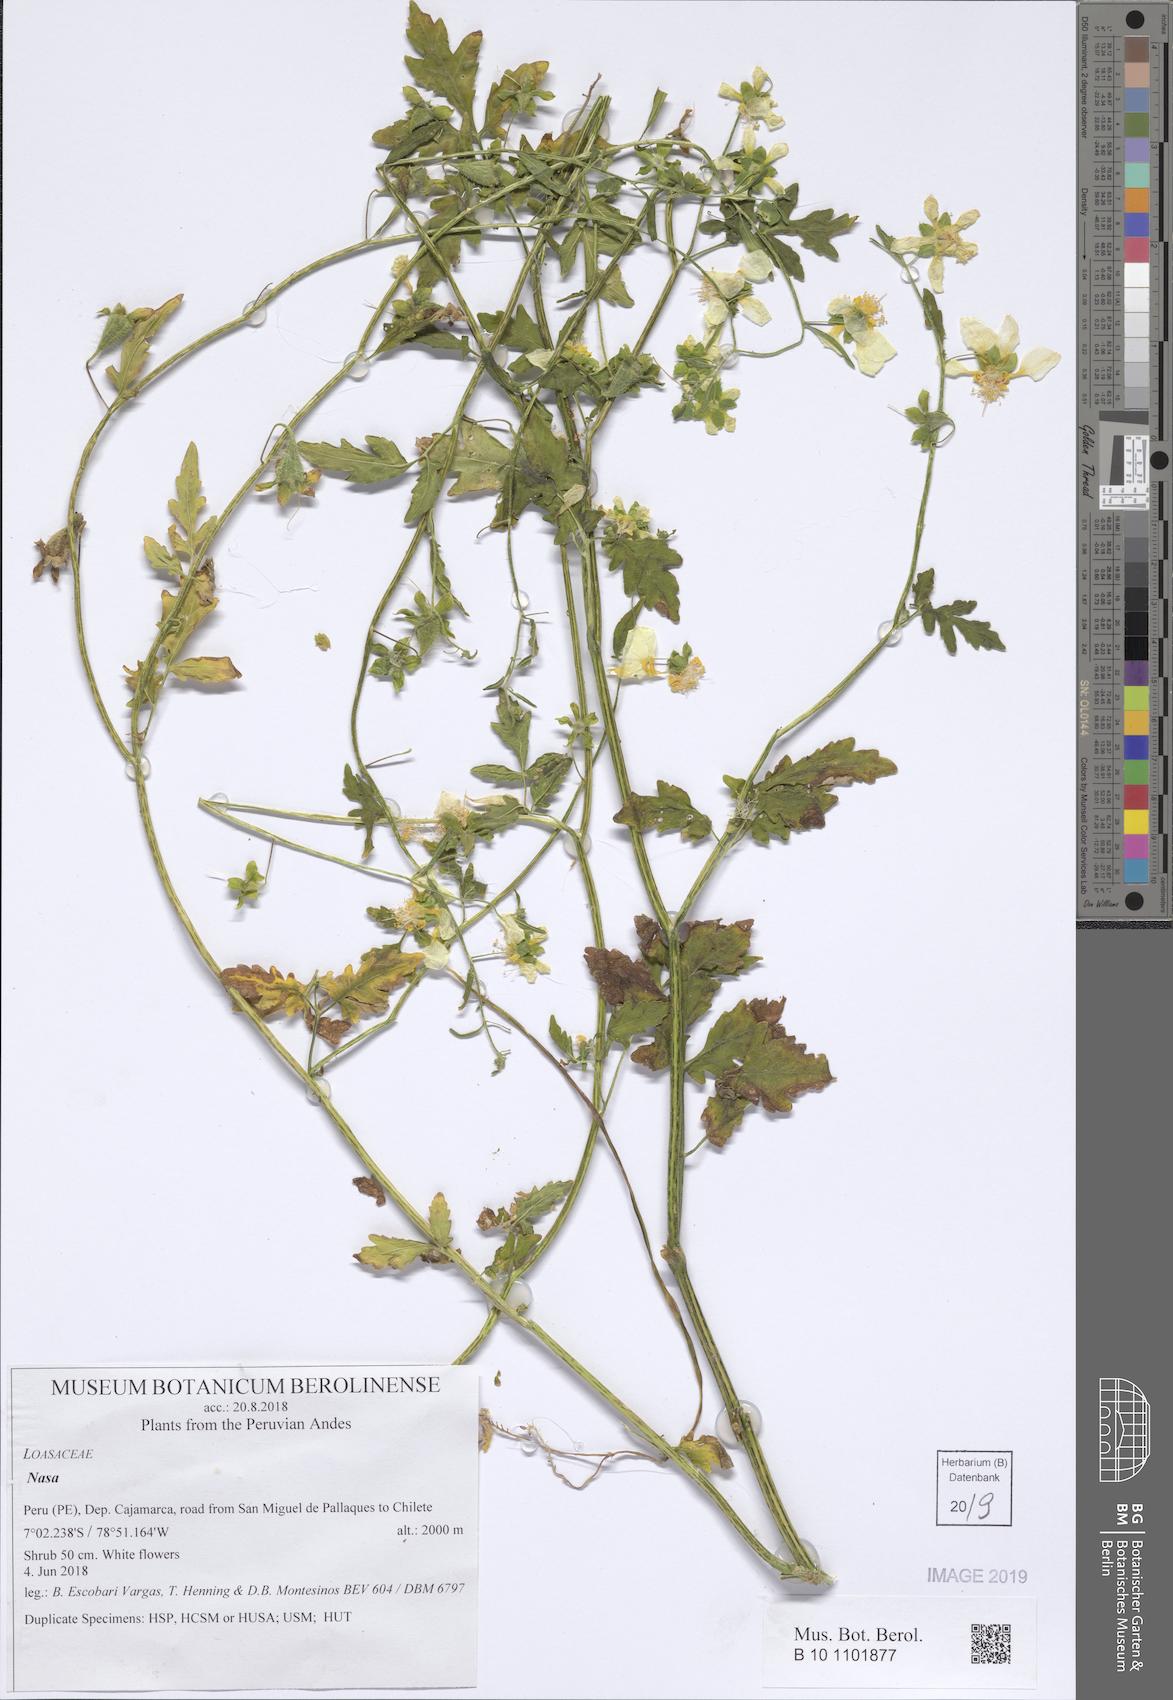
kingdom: Plantae
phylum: Tracheophyta
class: Magnoliopsida
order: Cornales
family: Loasaceae
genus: Nasa
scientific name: Nasa pteridophylla
